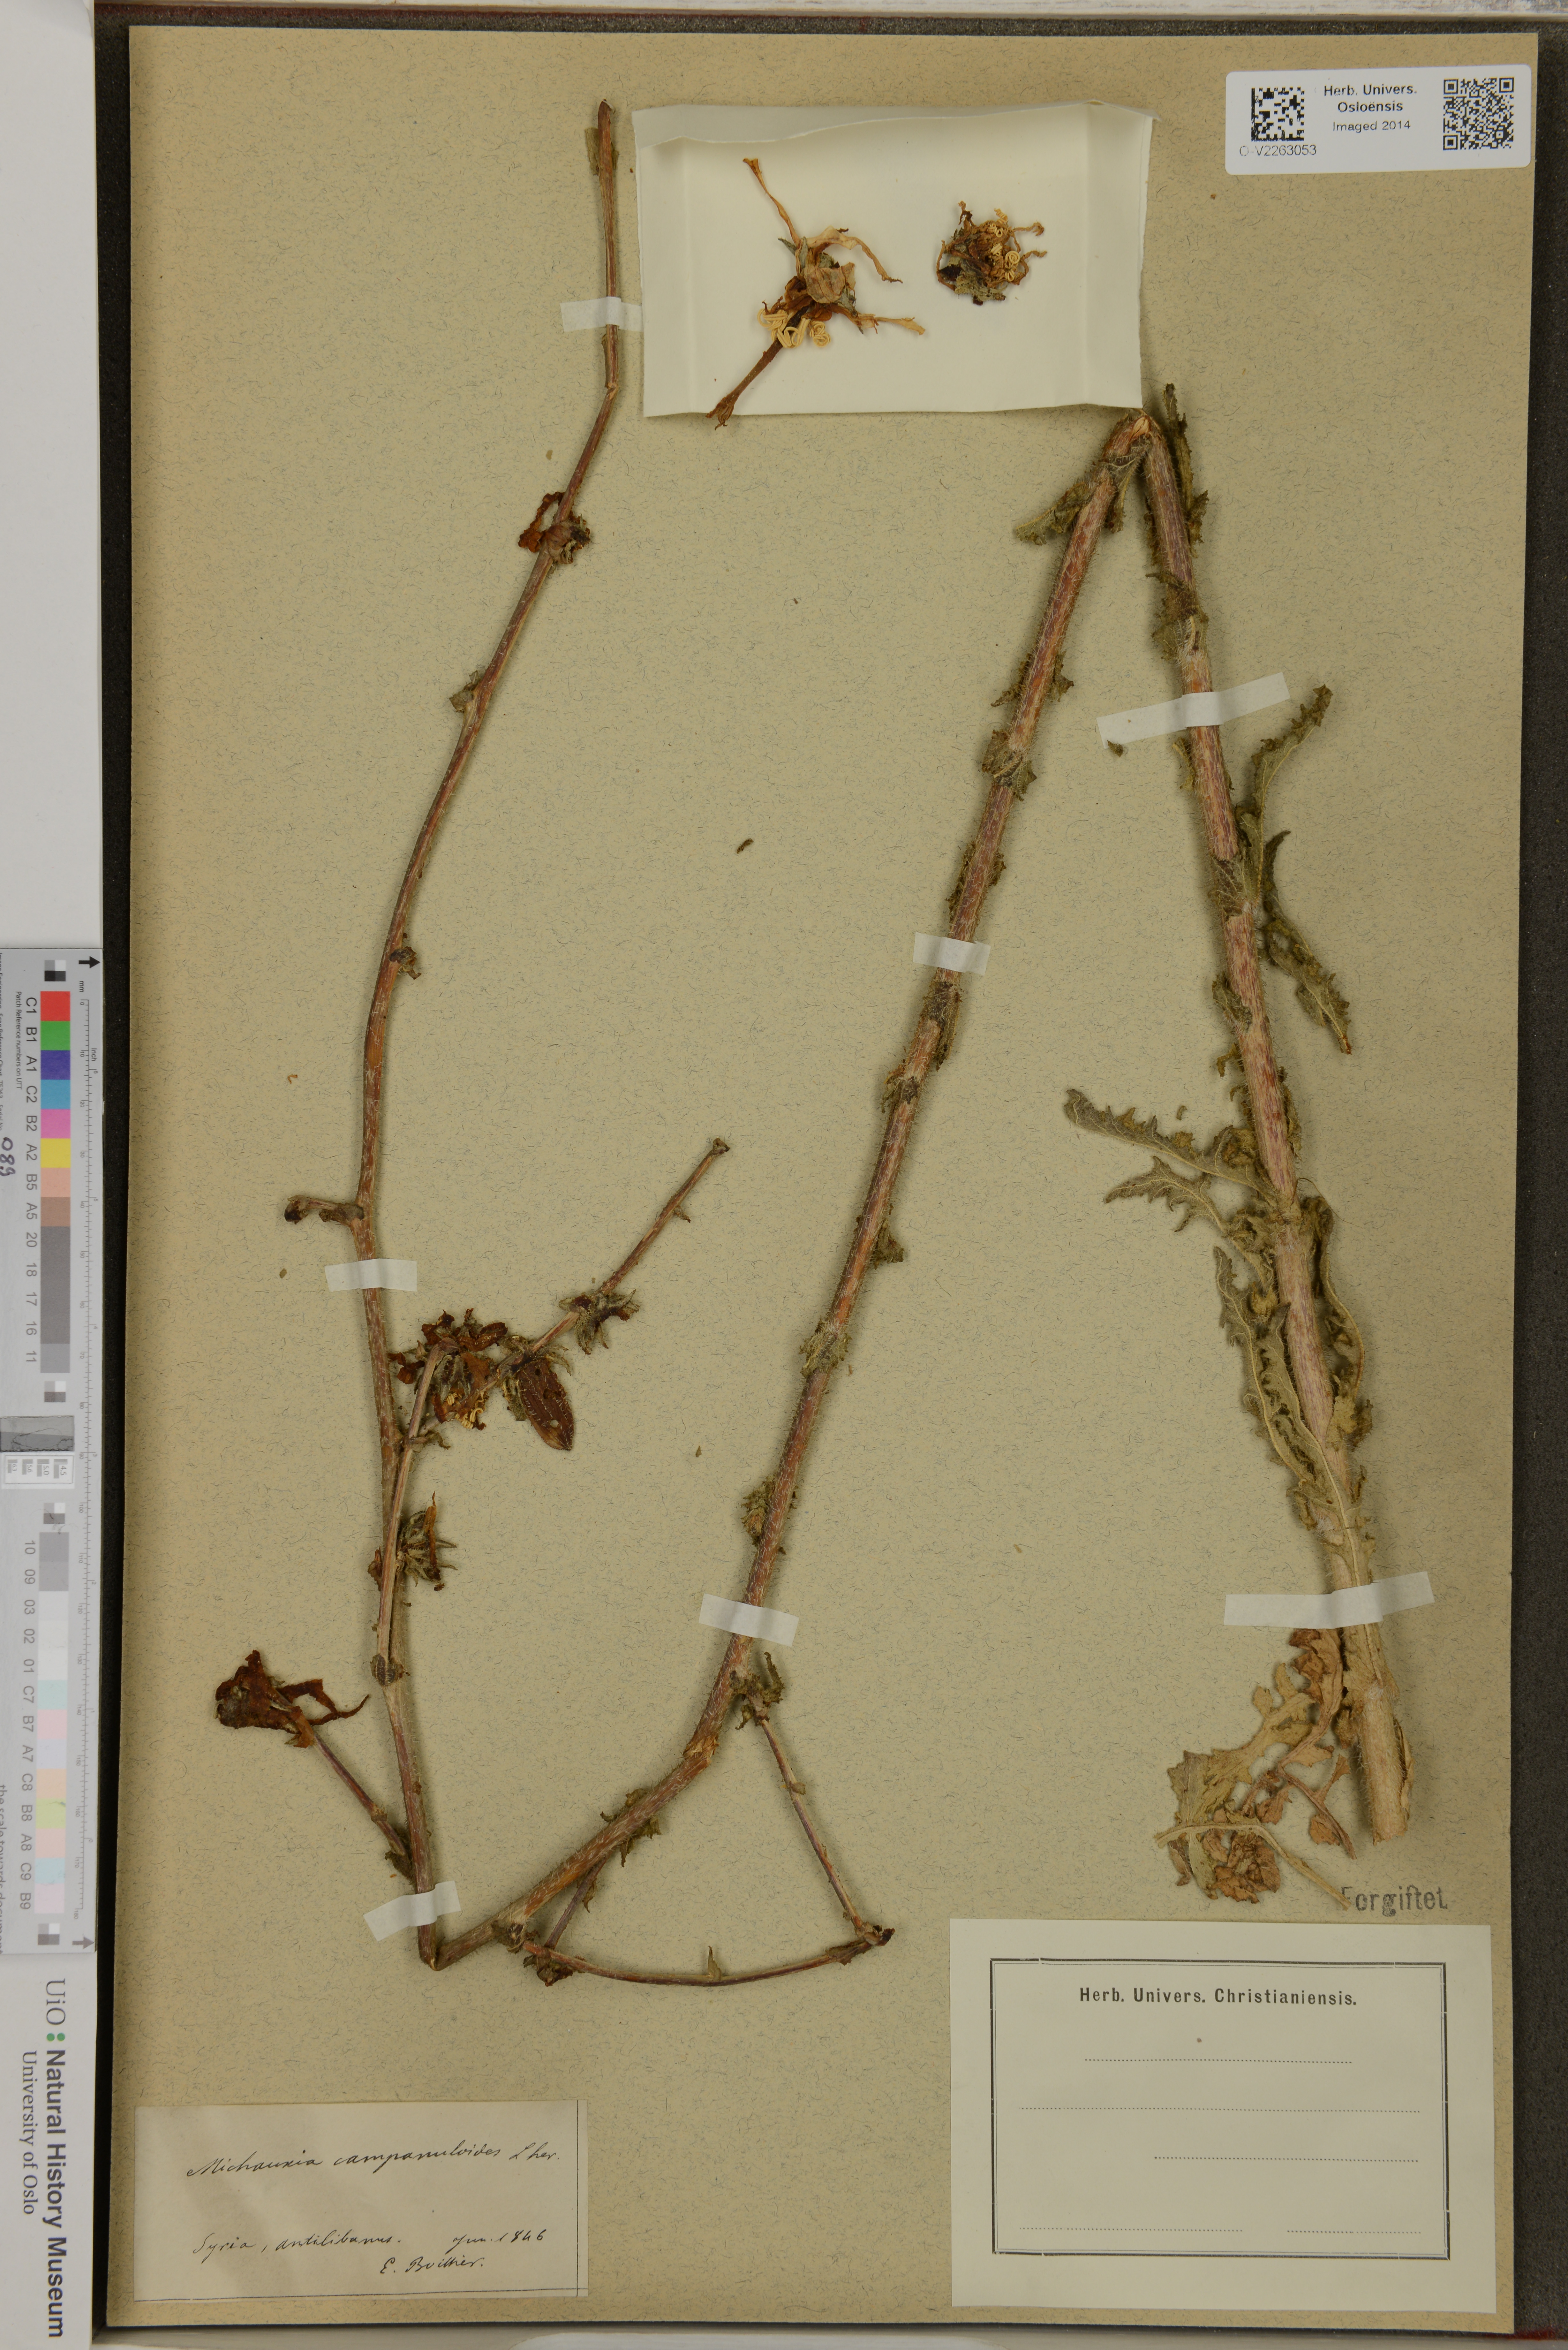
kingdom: Plantae
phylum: Tracheophyta
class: Magnoliopsida
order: Asterales
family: Campanulaceae
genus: Michauxia
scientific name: Michauxia campanuloides
